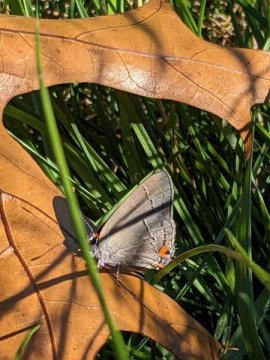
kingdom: Animalia
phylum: Arthropoda
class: Insecta
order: Lepidoptera
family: Lycaenidae
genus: Strymon
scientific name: Strymon melinus
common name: Gray Hairstreak
